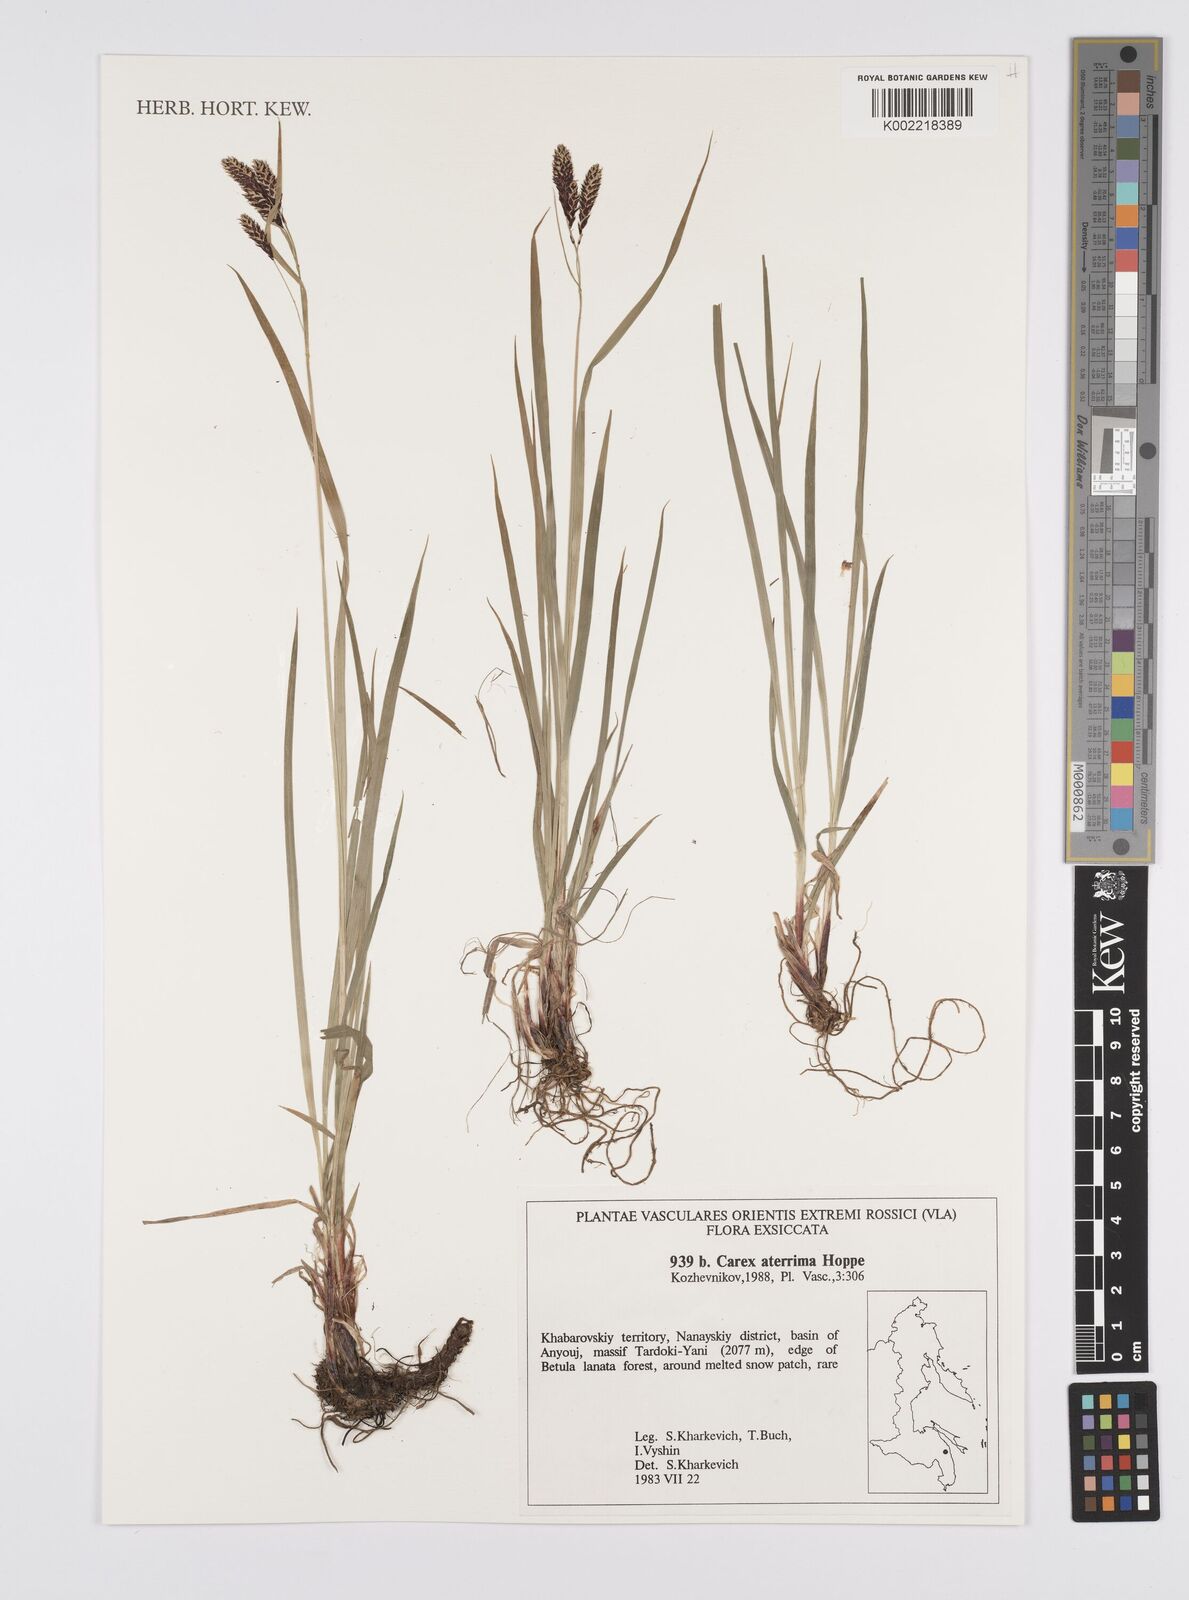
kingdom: Plantae
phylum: Tracheophyta
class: Liliopsida
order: Poales
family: Cyperaceae
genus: Carex
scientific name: Carex atrata
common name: Black alpine sedge
